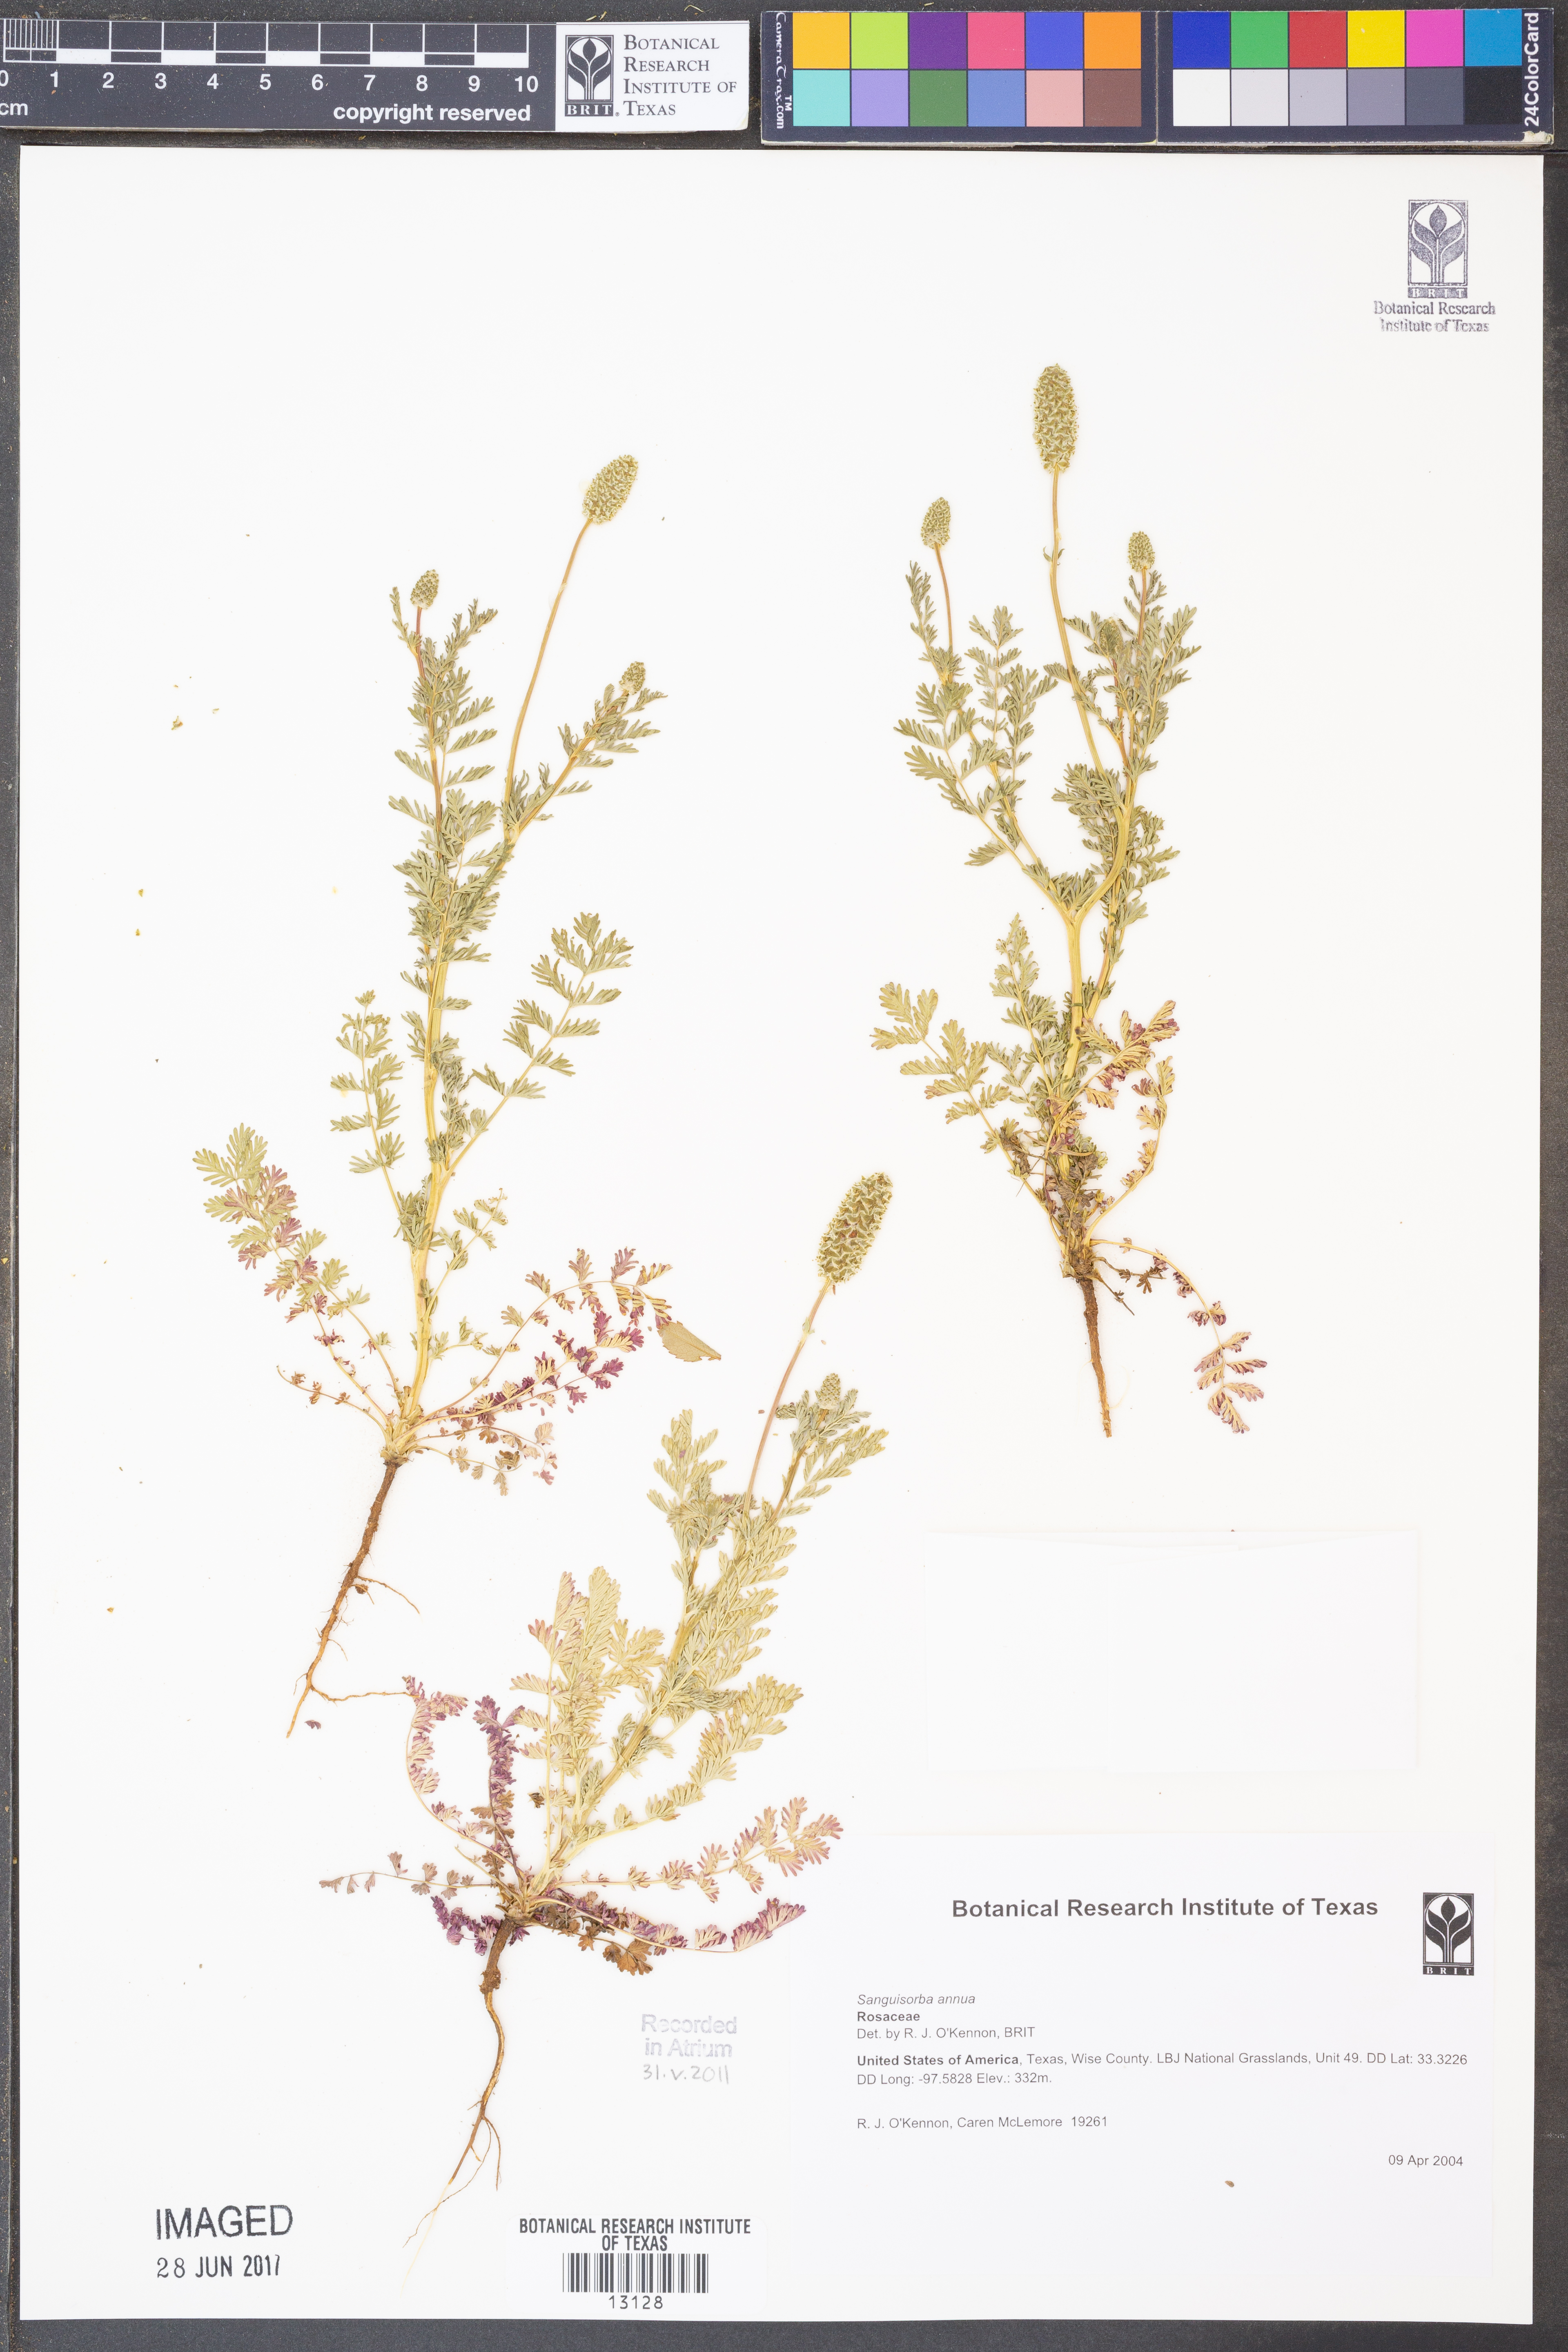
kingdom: Plantae
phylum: Tracheophyta
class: Magnoliopsida
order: Rosales
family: Rosaceae
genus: Poteridium
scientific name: Poteridium annuum
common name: Annual burnet
